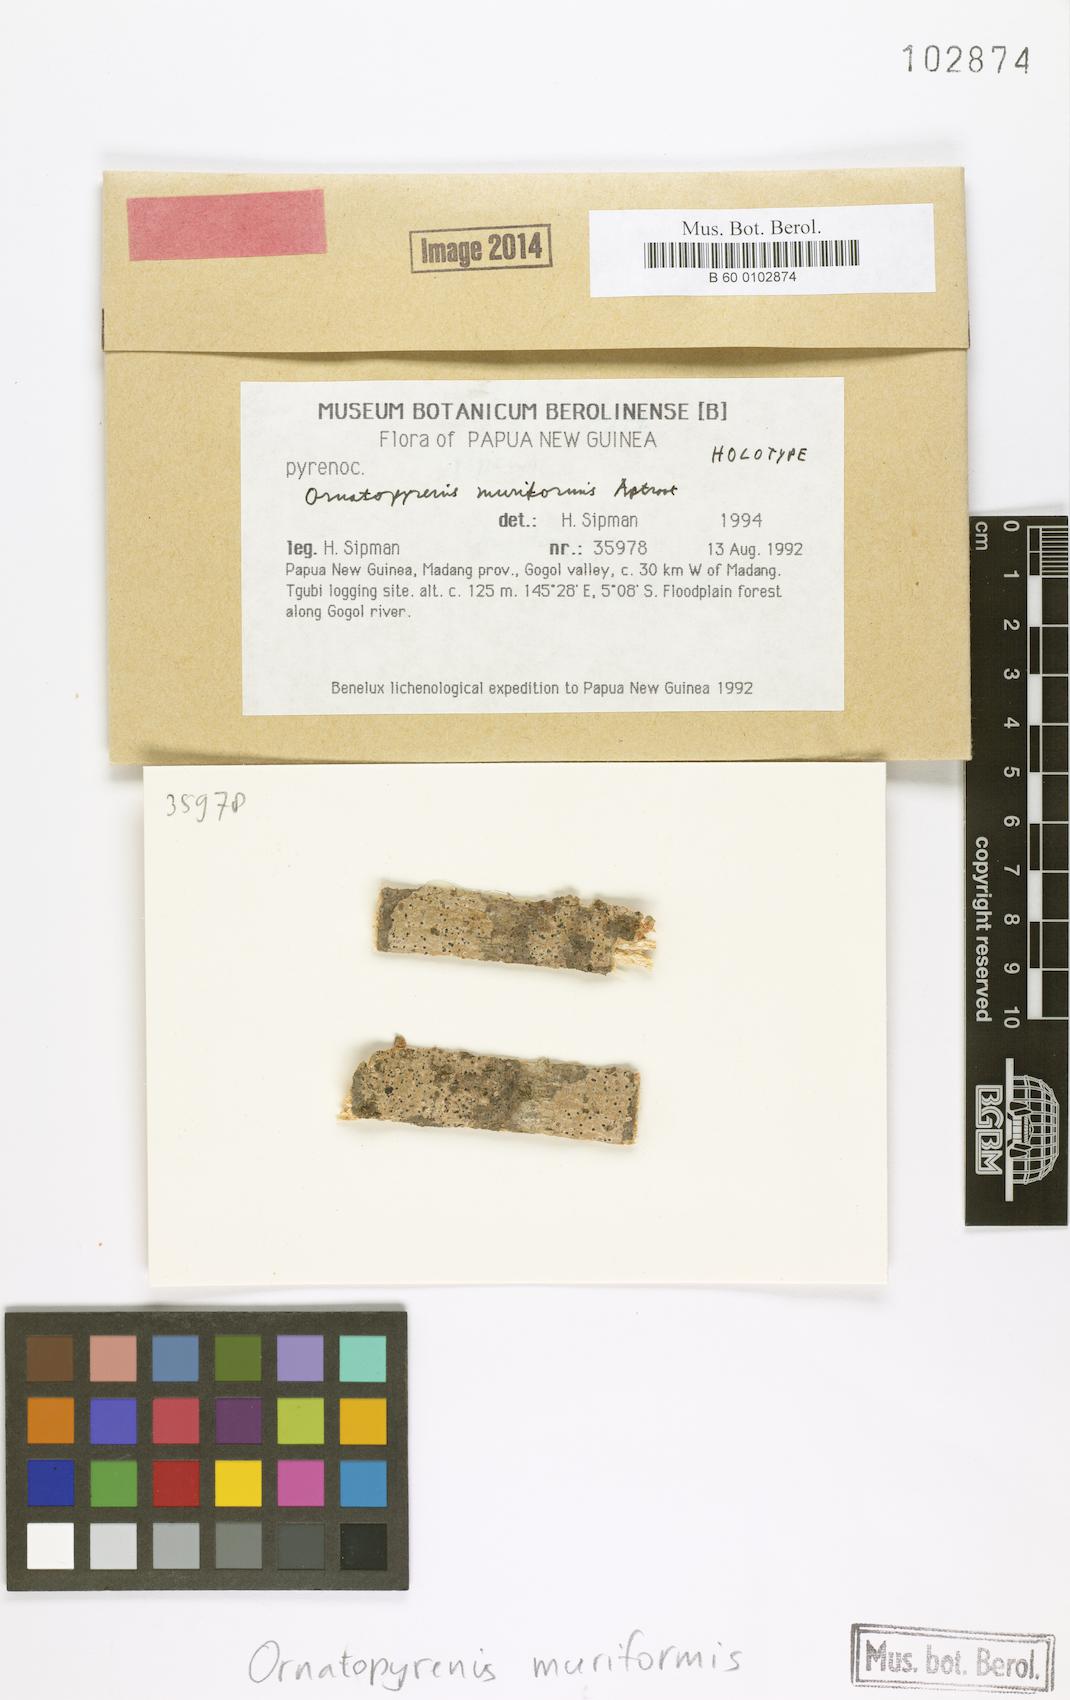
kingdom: Fungi
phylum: Ascomycota
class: Dothideomycetes
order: Trypetheliales
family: Trypetheliaceae
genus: Ornatopyrenis
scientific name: Ornatopyrenis muriformis
